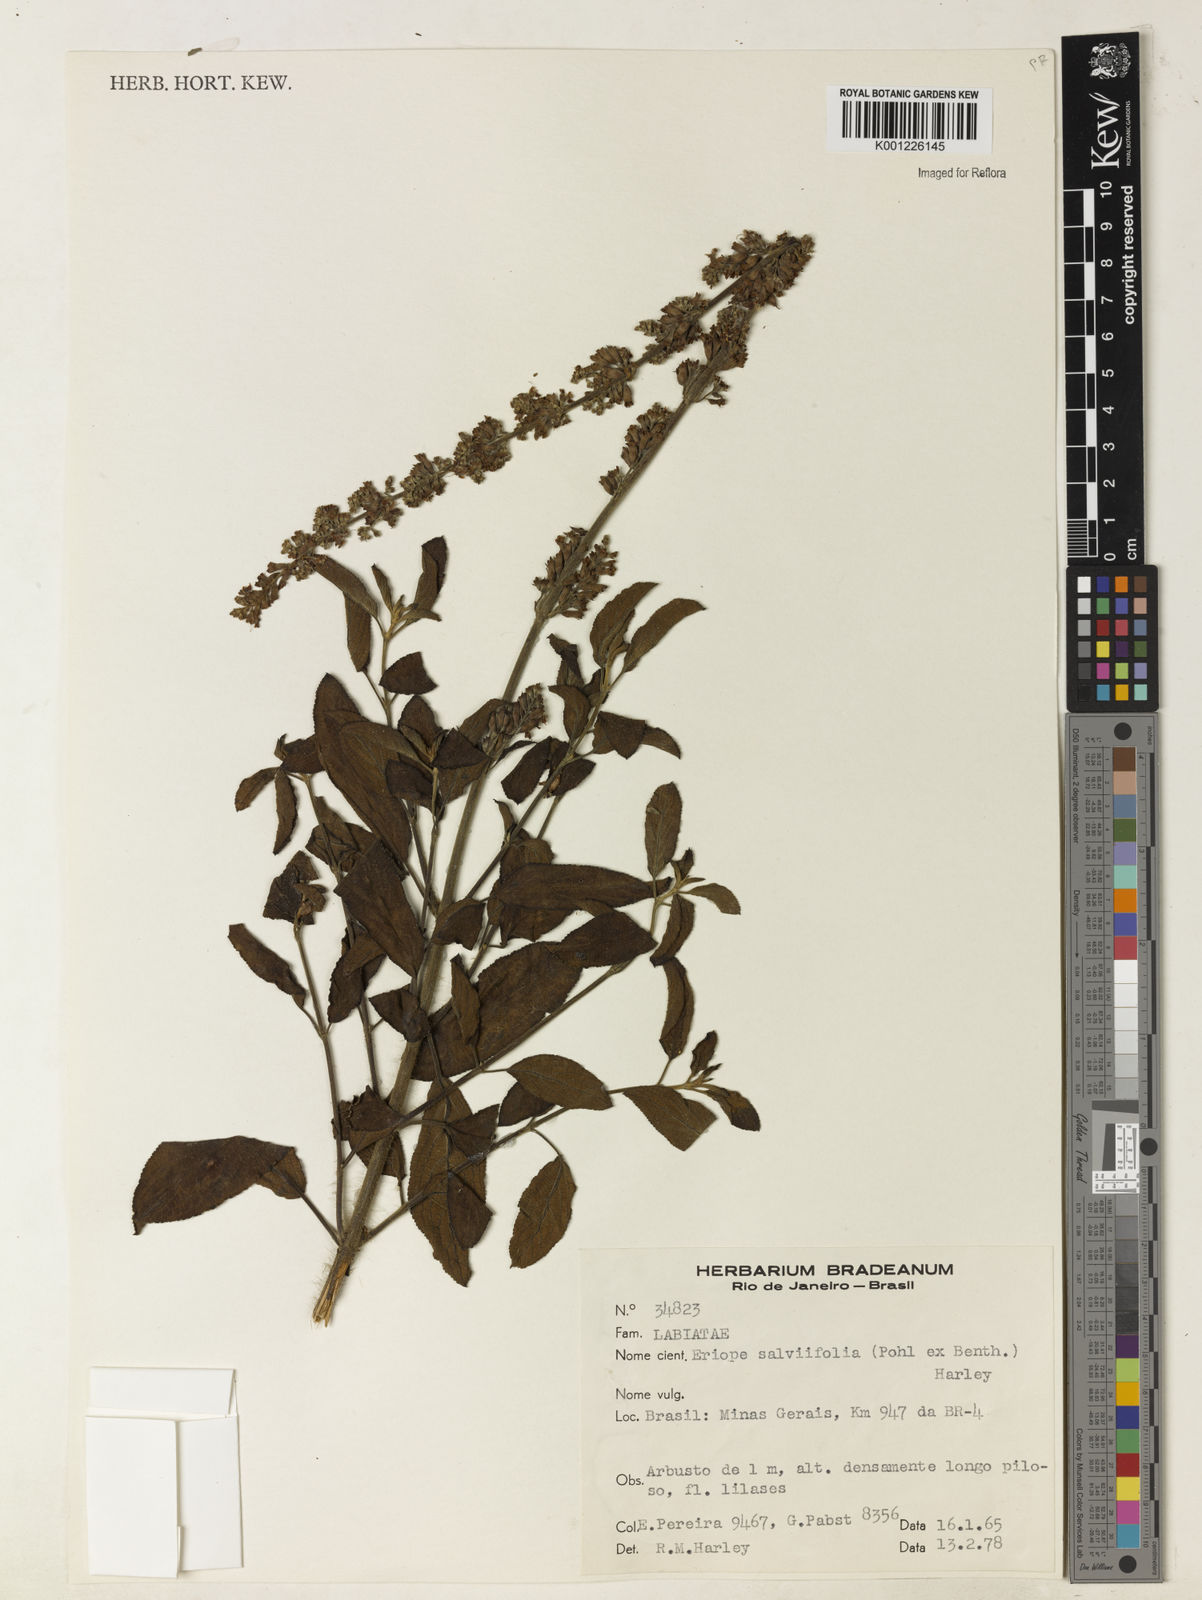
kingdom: Plantae
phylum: Tracheophyta
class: Magnoliopsida
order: Lamiales
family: Lamiaceae
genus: Eriope
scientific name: Eriope salviifolia
